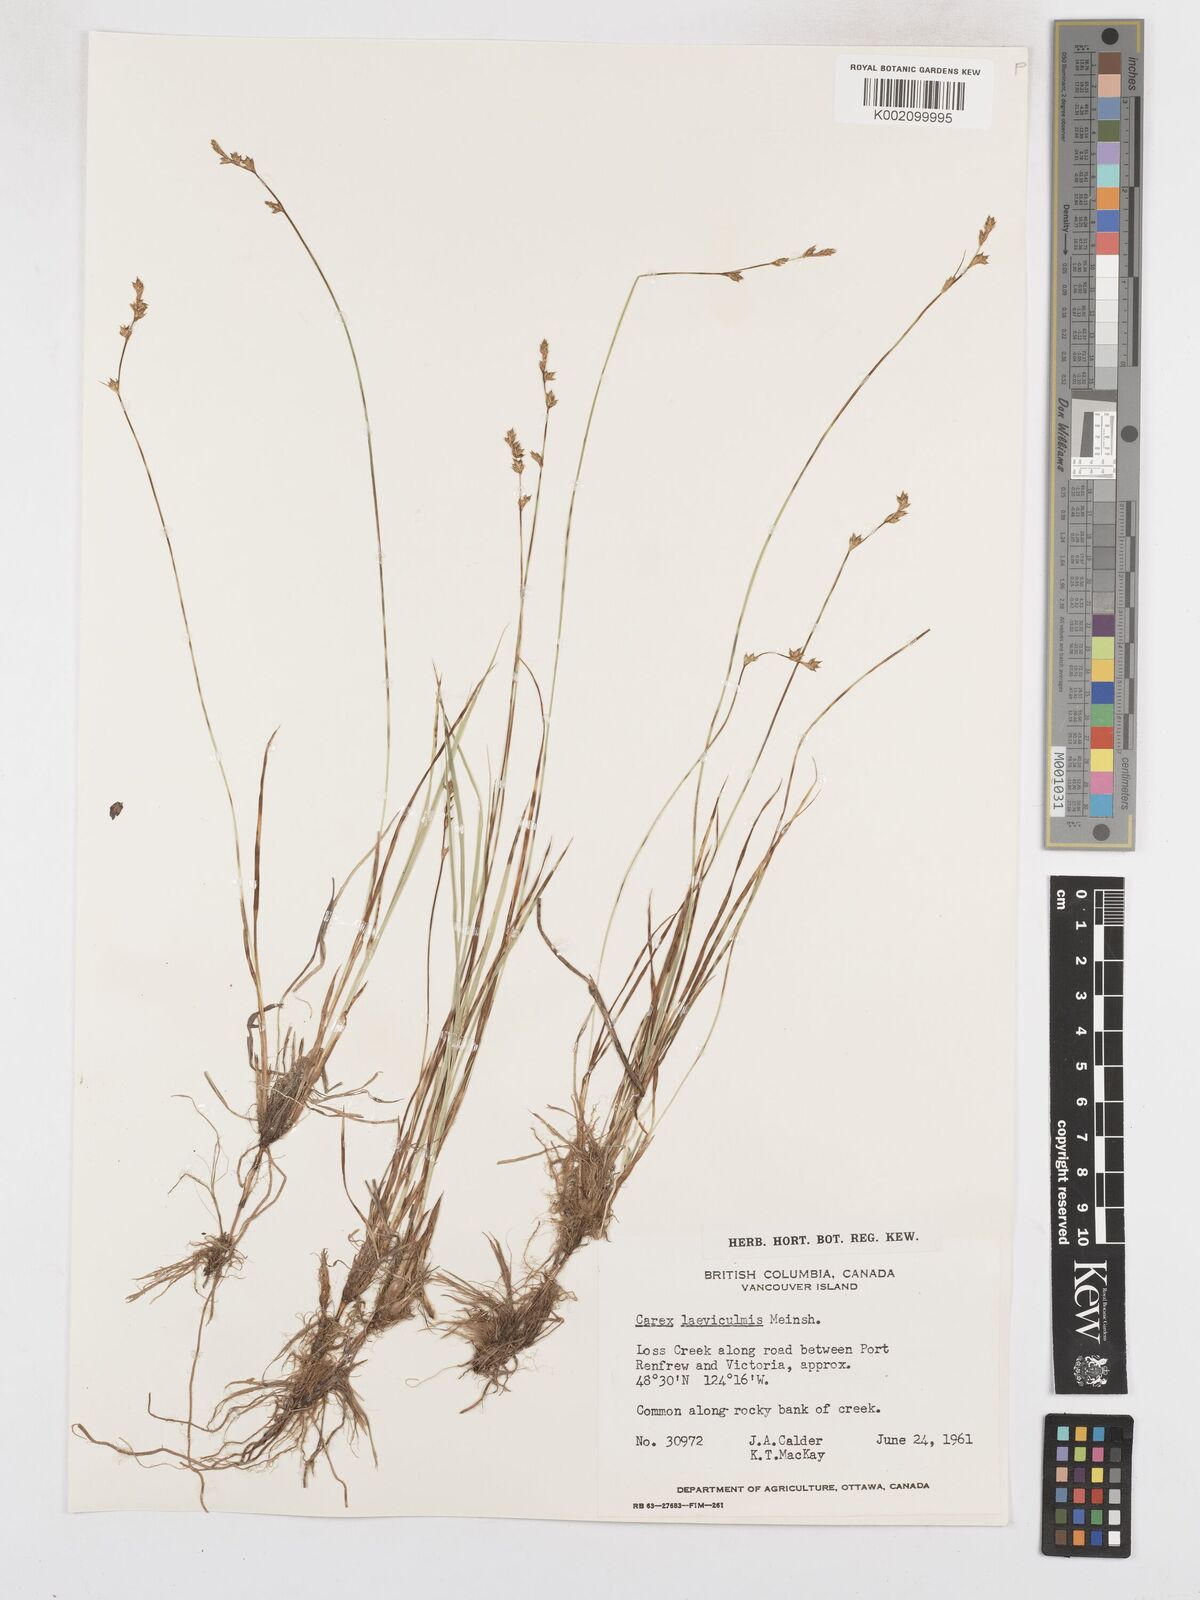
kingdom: Plantae
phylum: Tracheophyta
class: Liliopsida
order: Poales
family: Cyperaceae
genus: Carex
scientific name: Carex laeviculmis
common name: Smooth sedge
